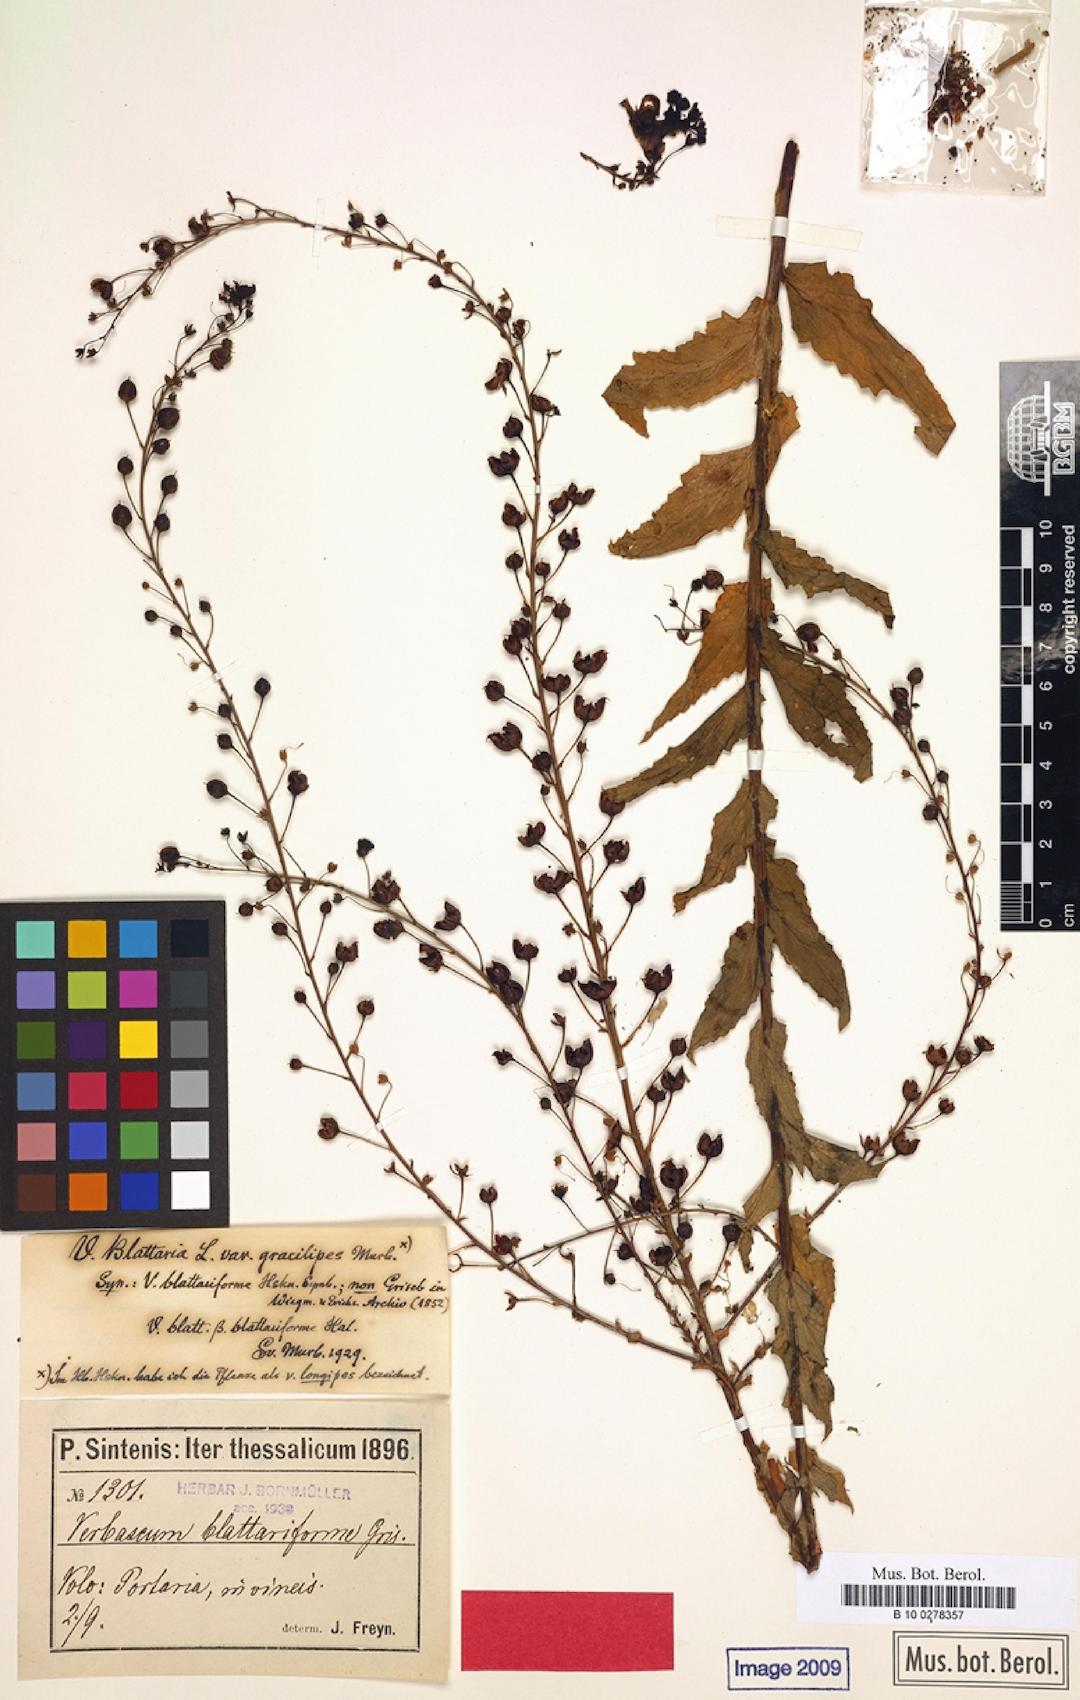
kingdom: Plantae
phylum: Tracheophyta
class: Magnoliopsida
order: Lamiales
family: Scrophulariaceae
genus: Verbascum
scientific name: Verbascum blattaria
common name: Moth mullein
